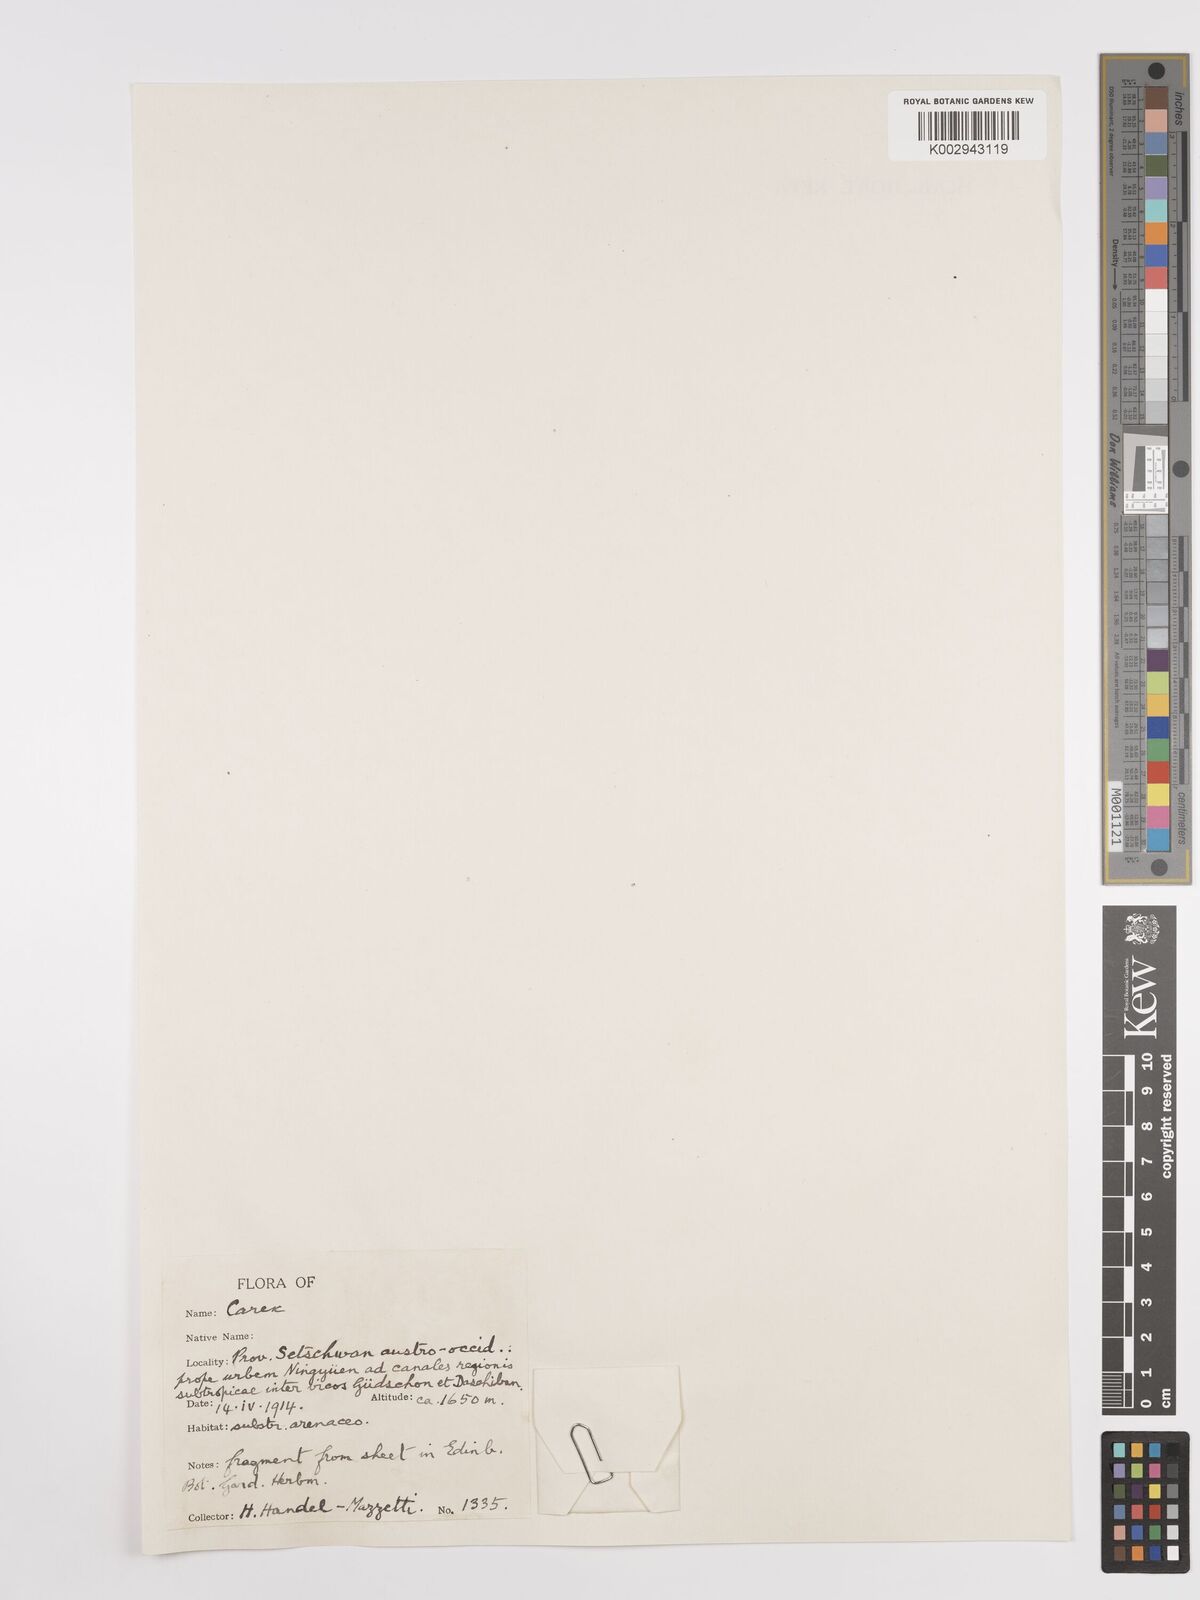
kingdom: Plantae
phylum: Tracheophyta
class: Liliopsida
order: Poales
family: Cyperaceae
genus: Carex
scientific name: Carex
